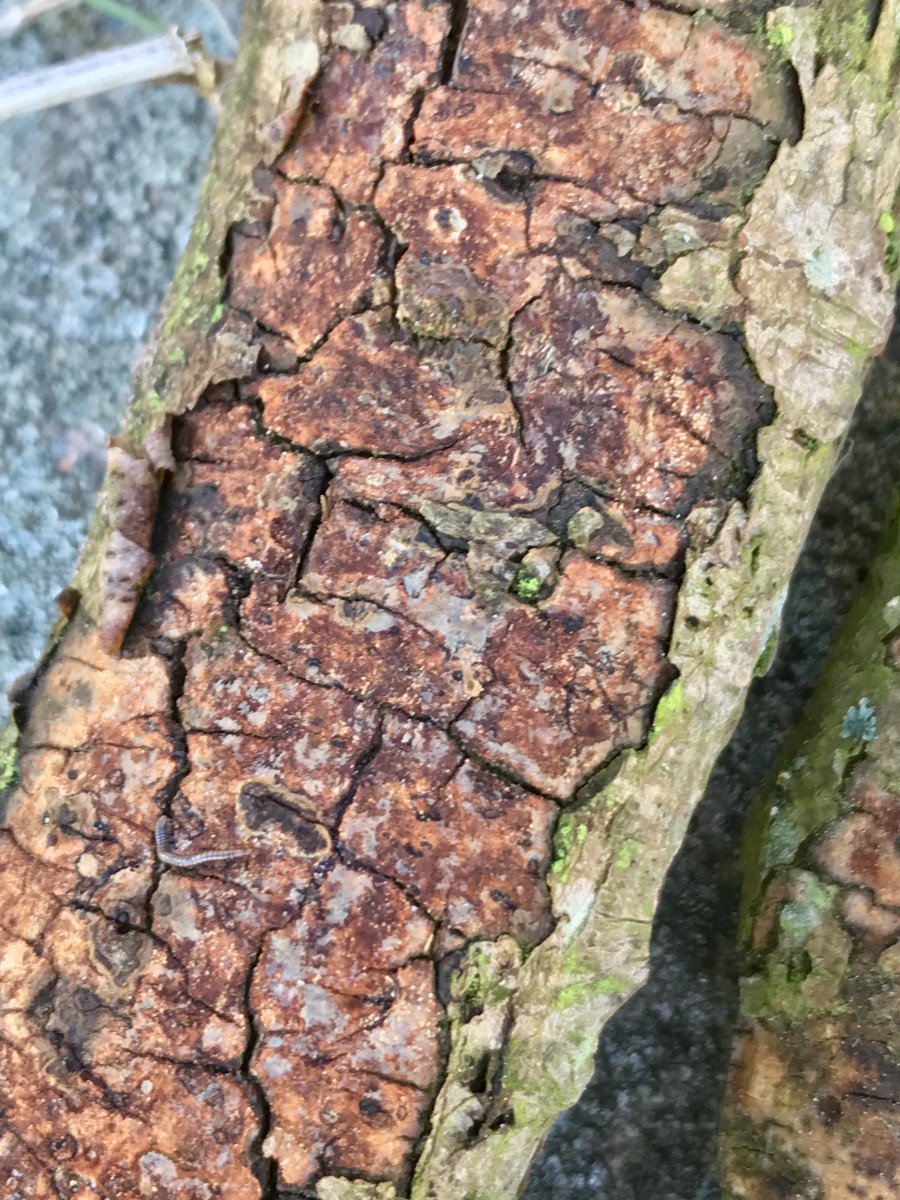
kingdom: Fungi
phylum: Basidiomycota
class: Agaricomycetes
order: Corticiales
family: Vuilleminiaceae
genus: Vuilleminia
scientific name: Vuilleminia comedens
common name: almindelig barksprænger
